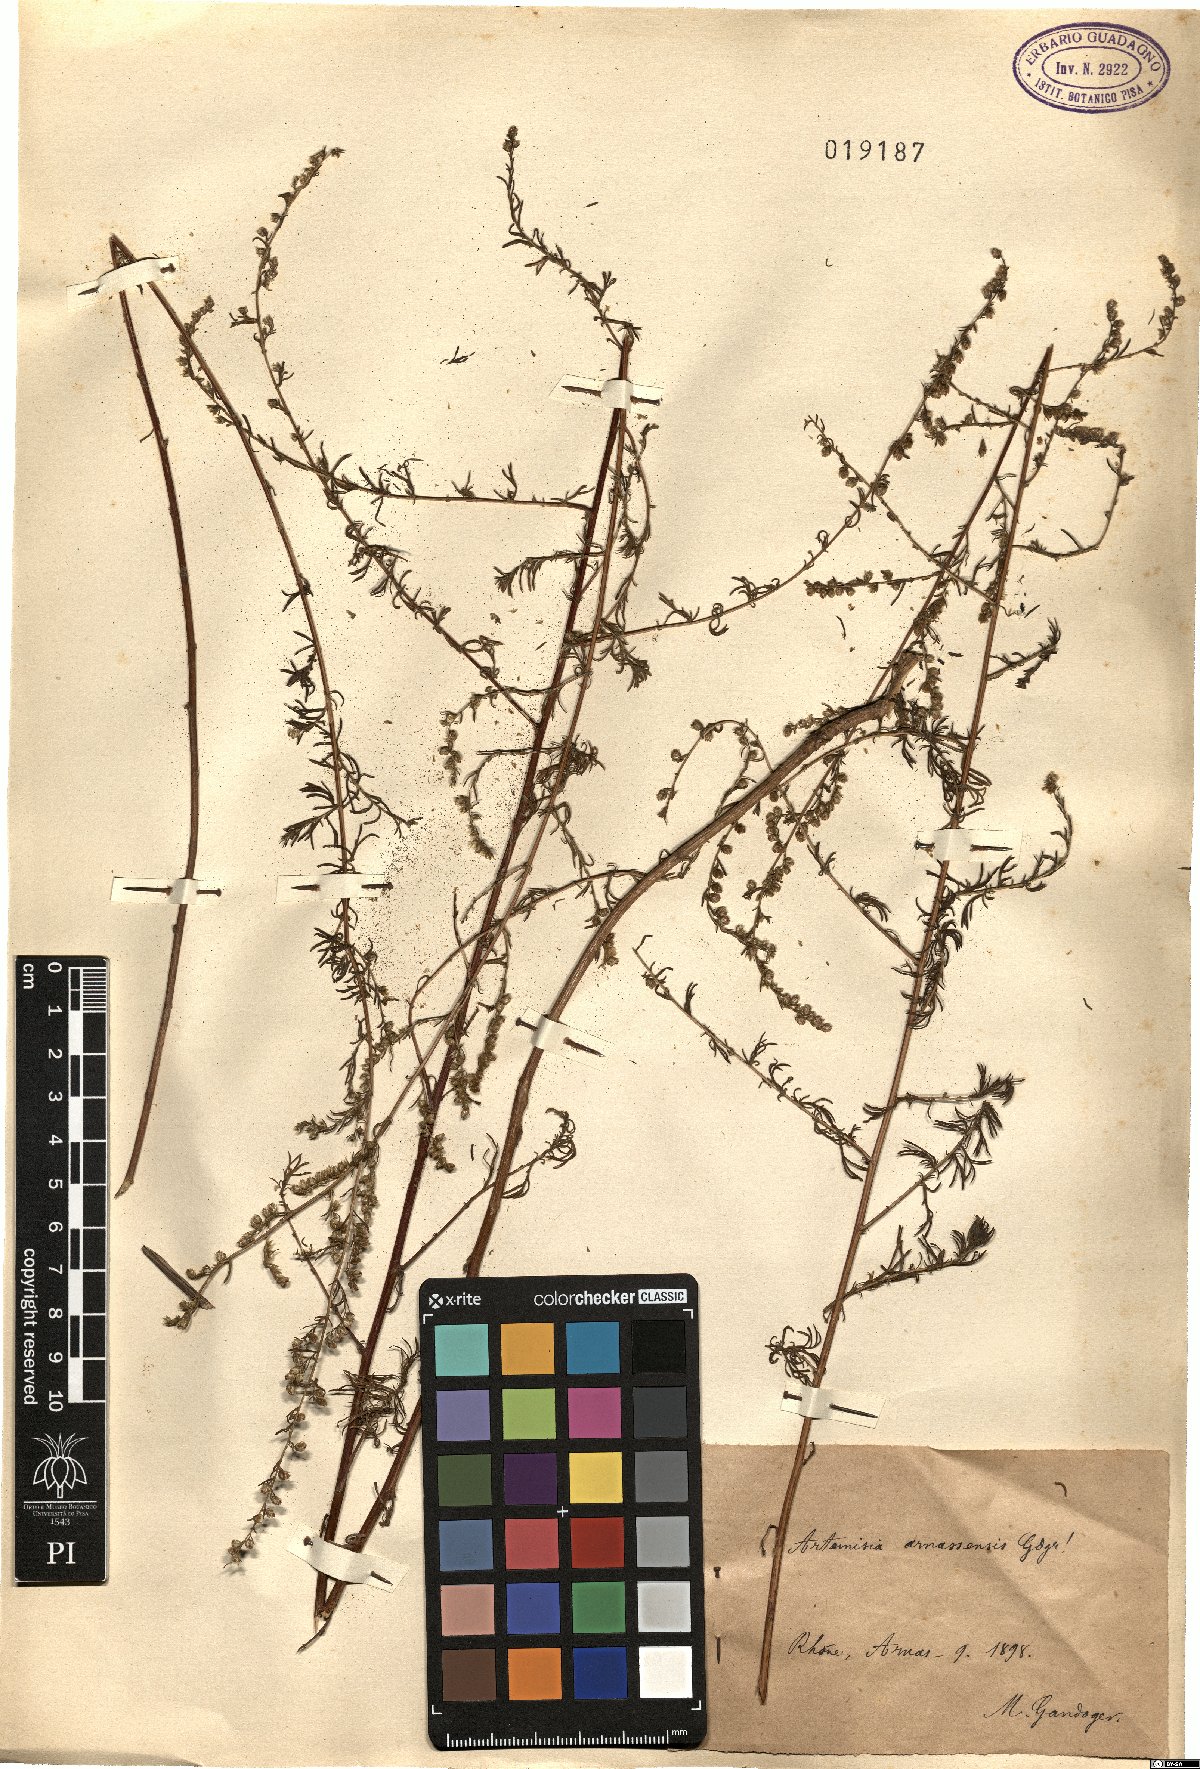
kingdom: Plantae
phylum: Tracheophyta
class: Magnoliopsida
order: Asterales
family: Asteraceae
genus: Artemisia
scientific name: Artemisia
